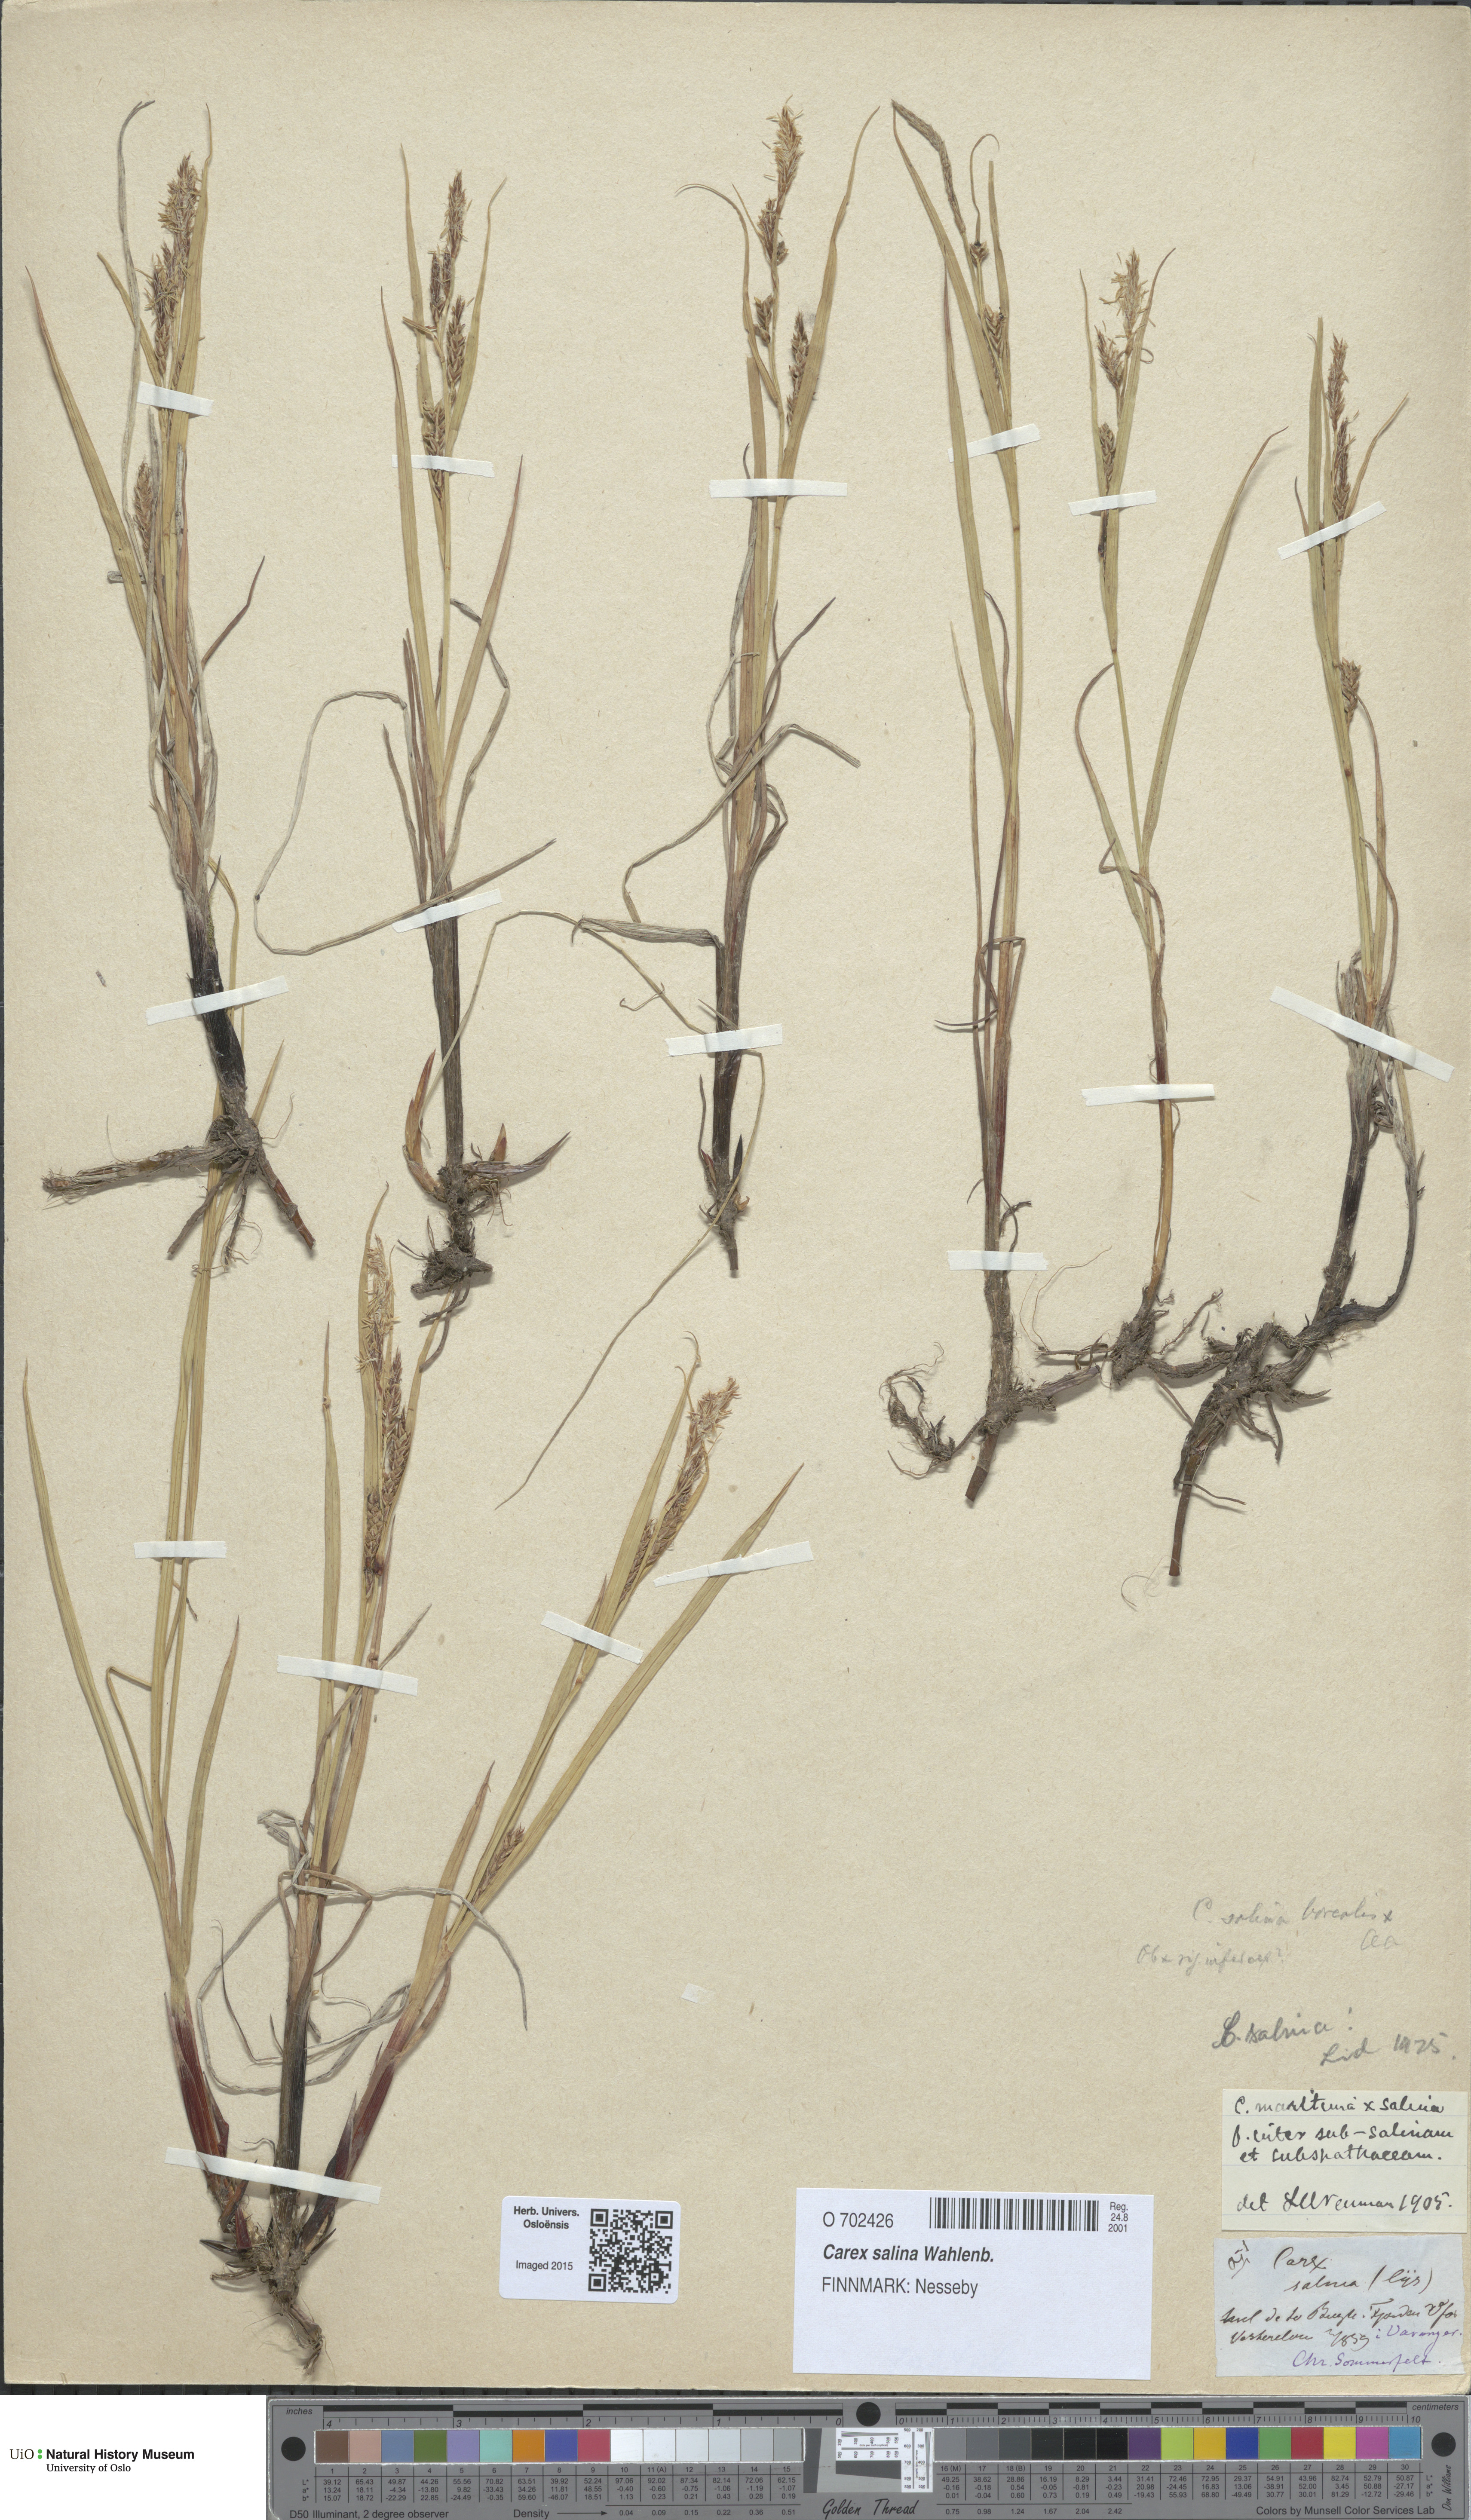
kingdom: Plantae
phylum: Tracheophyta
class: Liliopsida
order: Poales
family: Cyperaceae
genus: Carex
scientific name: Carex salina
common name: Saltmarsh sedge
